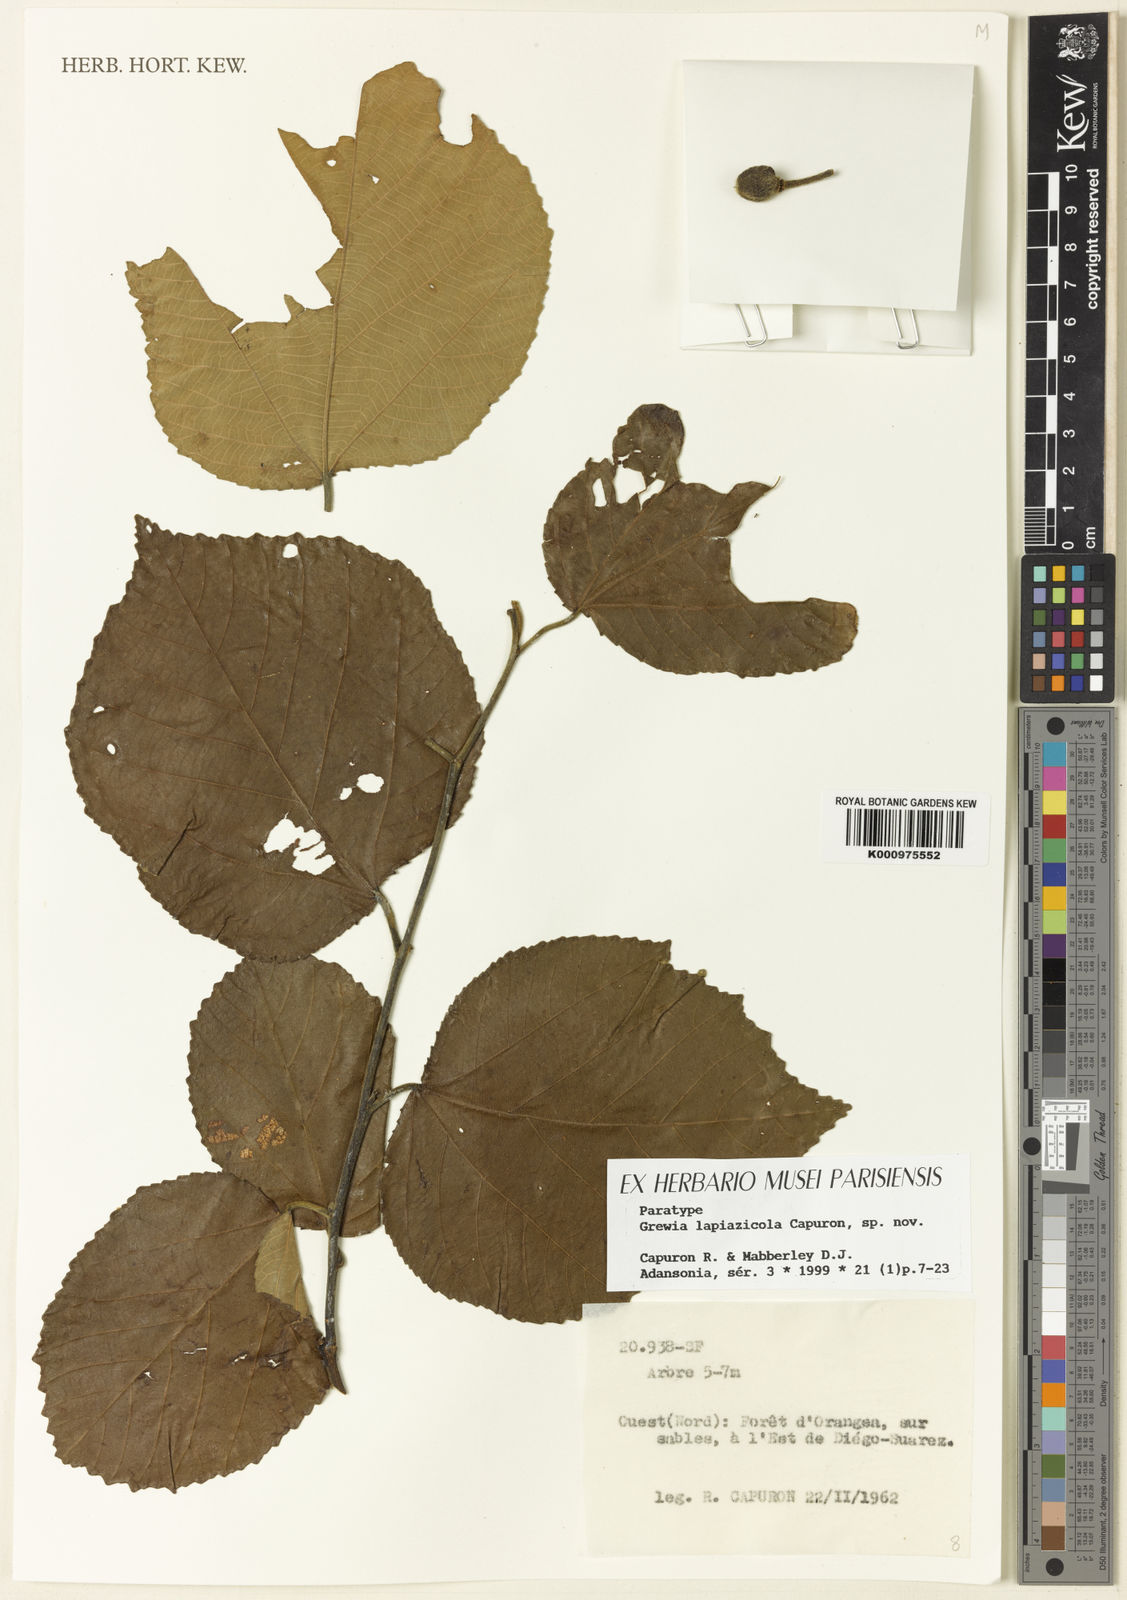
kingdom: Plantae
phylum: Tracheophyta
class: Magnoliopsida
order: Malvales
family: Malvaceae
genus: Grewia
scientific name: Grewia lapiazicola
